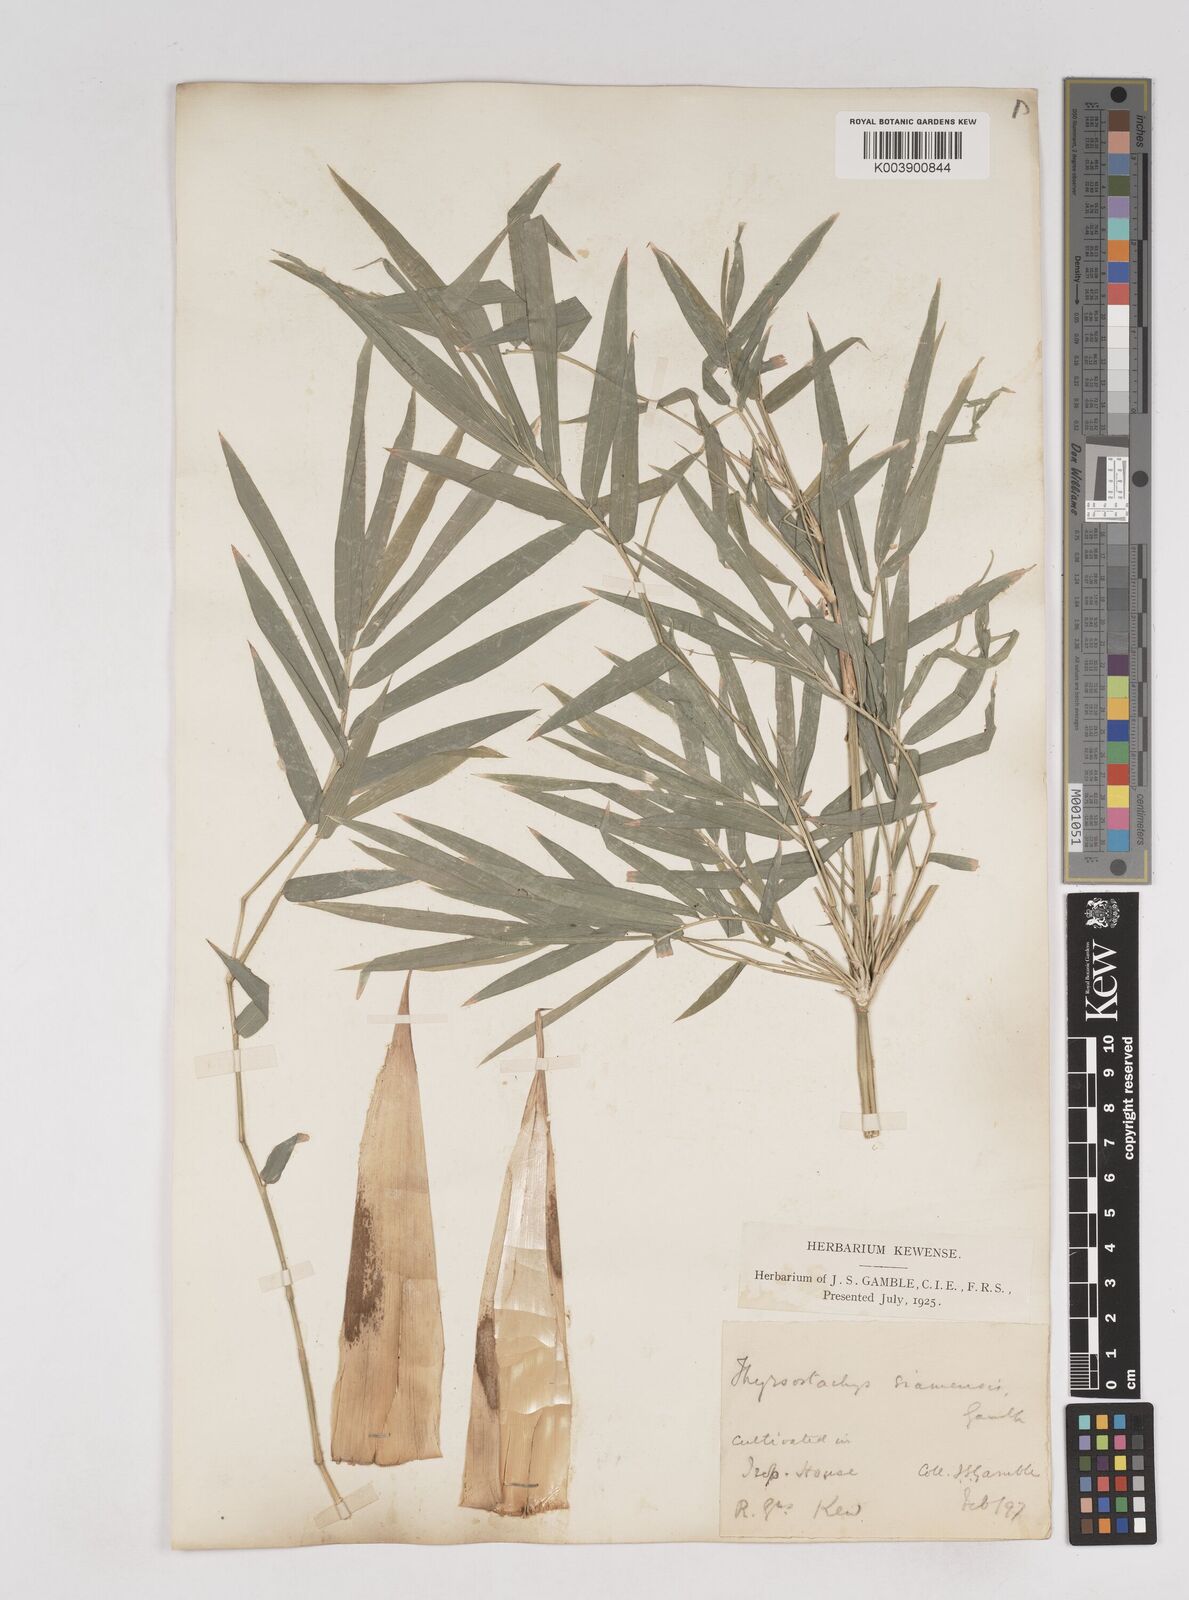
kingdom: Plantae
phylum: Tracheophyta
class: Liliopsida
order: Poales
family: Poaceae
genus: Thyrsostachys
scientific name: Thyrsostachys siamensis
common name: Thailand bamboo
